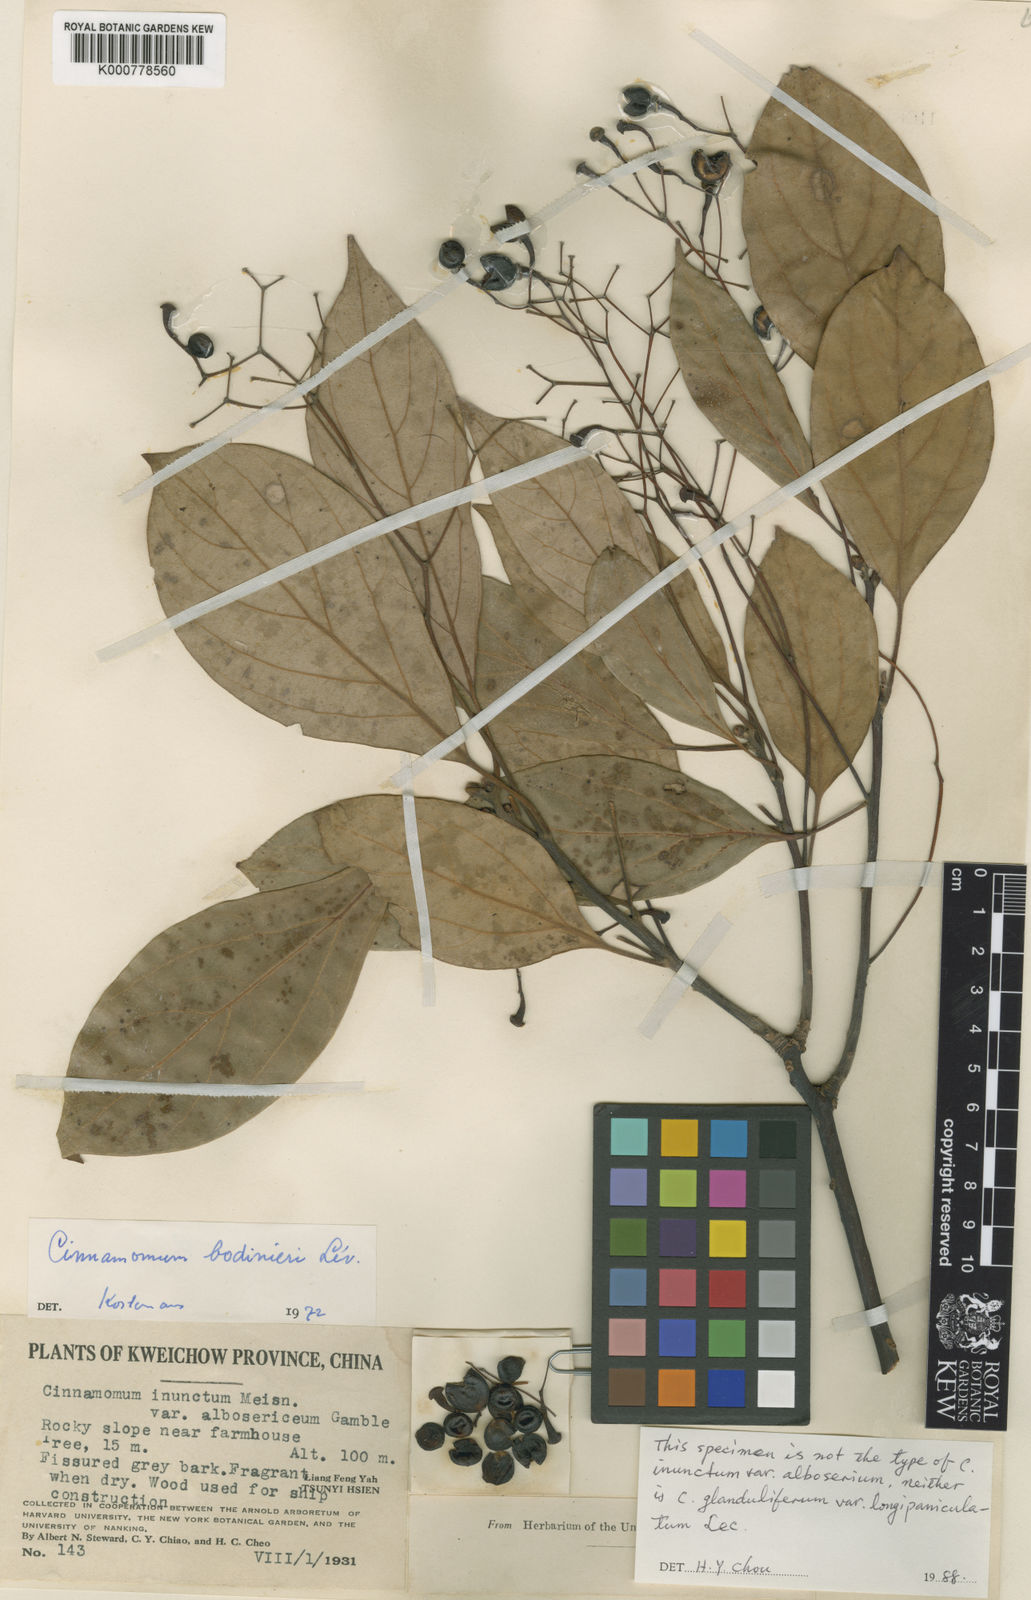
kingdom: Plantae
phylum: Tracheophyta
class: Magnoliopsida
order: Laurales
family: Lauraceae
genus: Cinnamomum
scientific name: Cinnamomum
